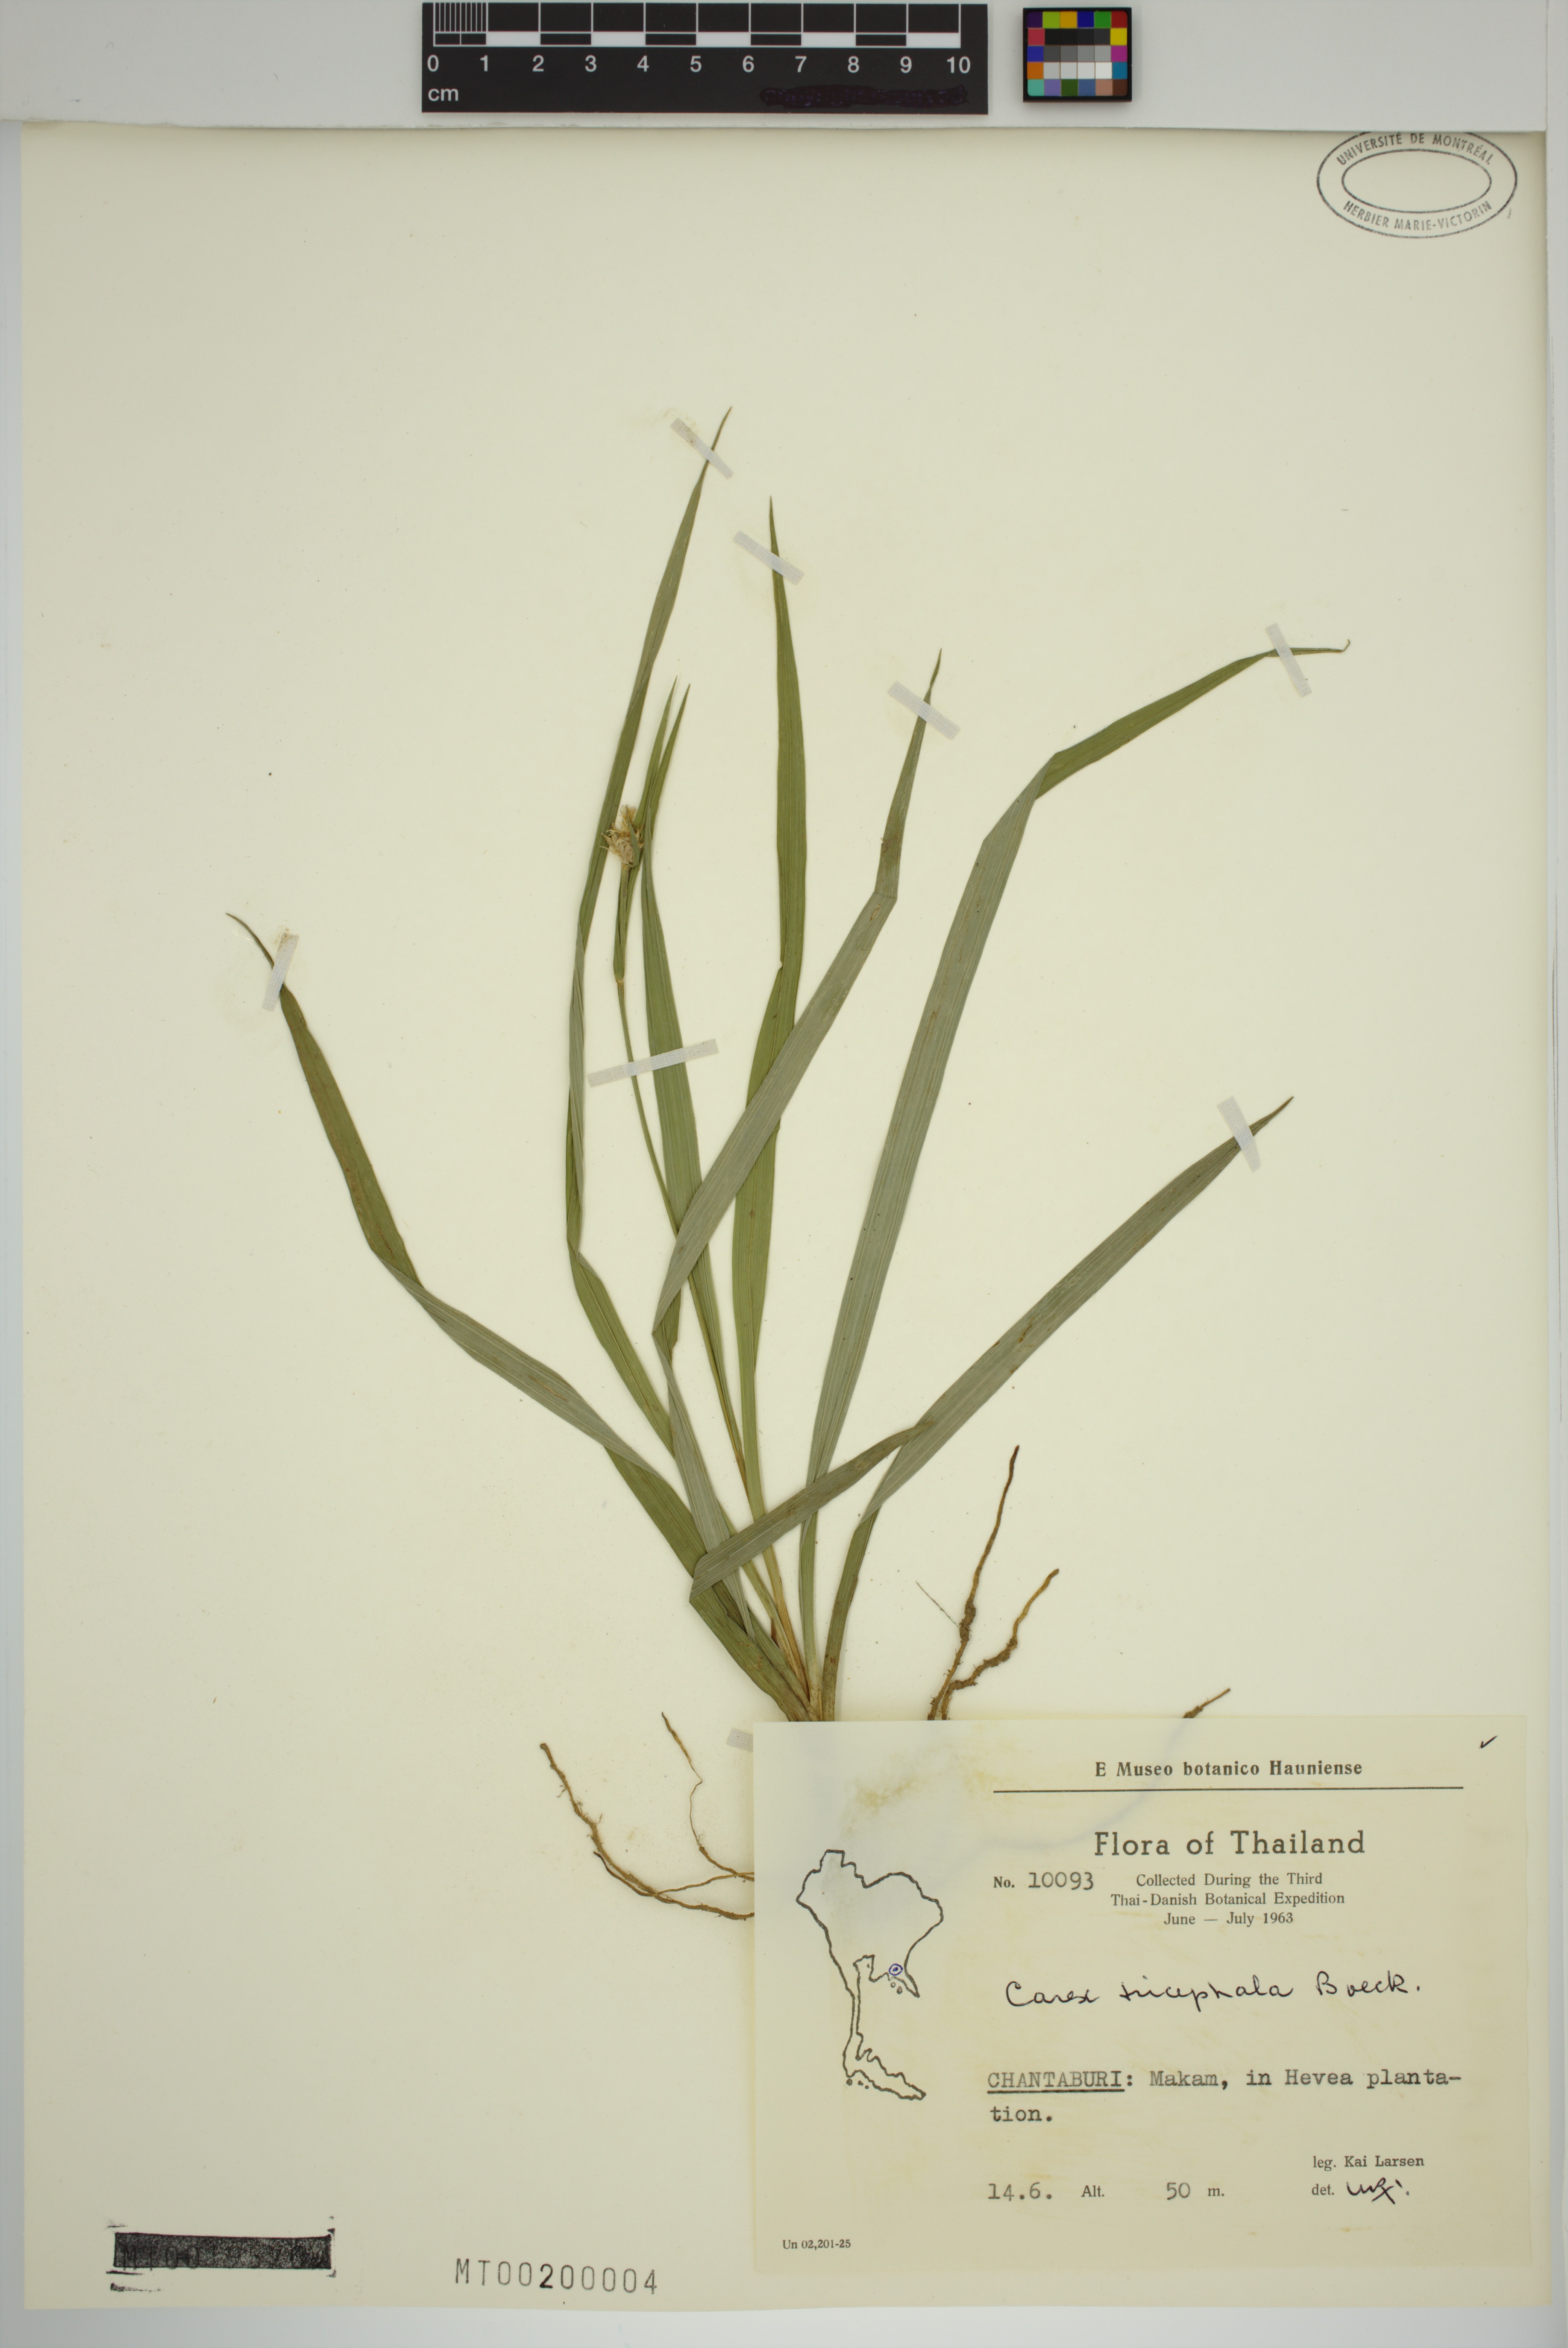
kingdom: Plantae
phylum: Tracheophyta
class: Liliopsida
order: Poales
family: Cyperaceae
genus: Carex
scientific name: Carex tricephala
